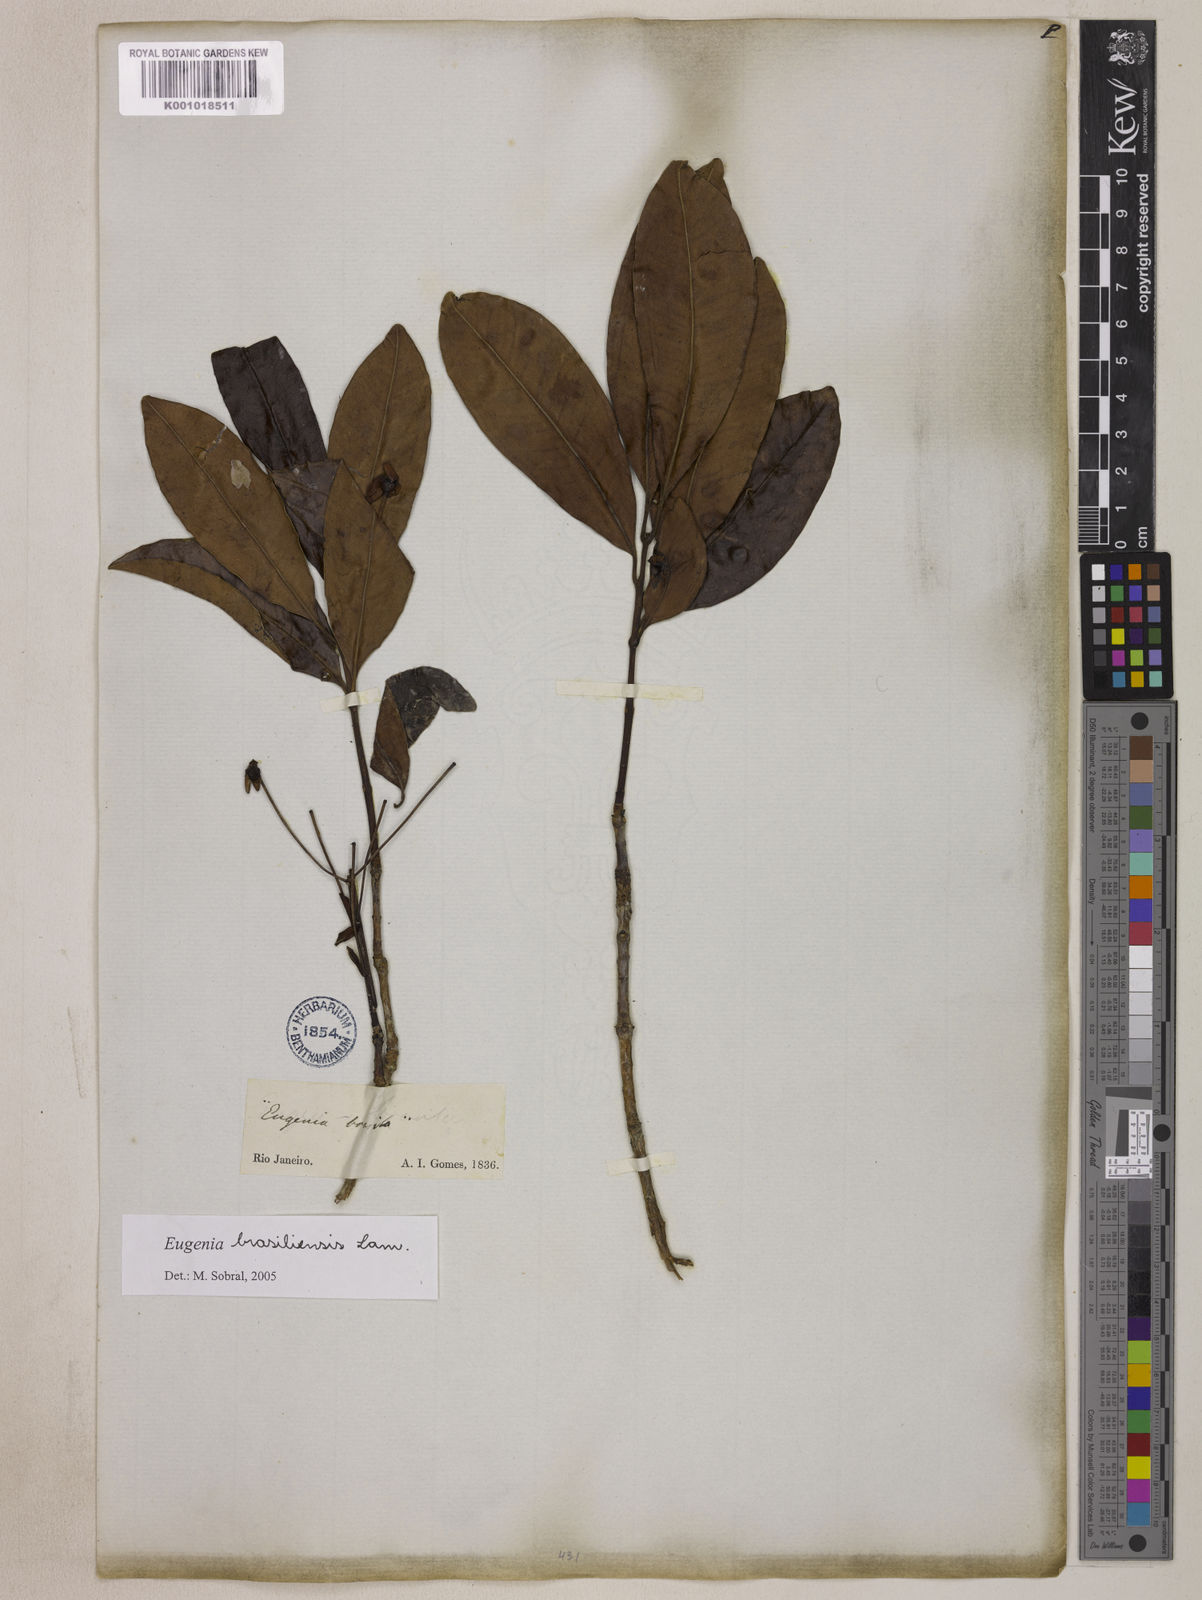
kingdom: Plantae
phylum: Tracheophyta
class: Magnoliopsida
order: Myrtales
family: Myrtaceae
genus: Eugenia
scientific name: Eugenia brasiliensis
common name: Grumichama
